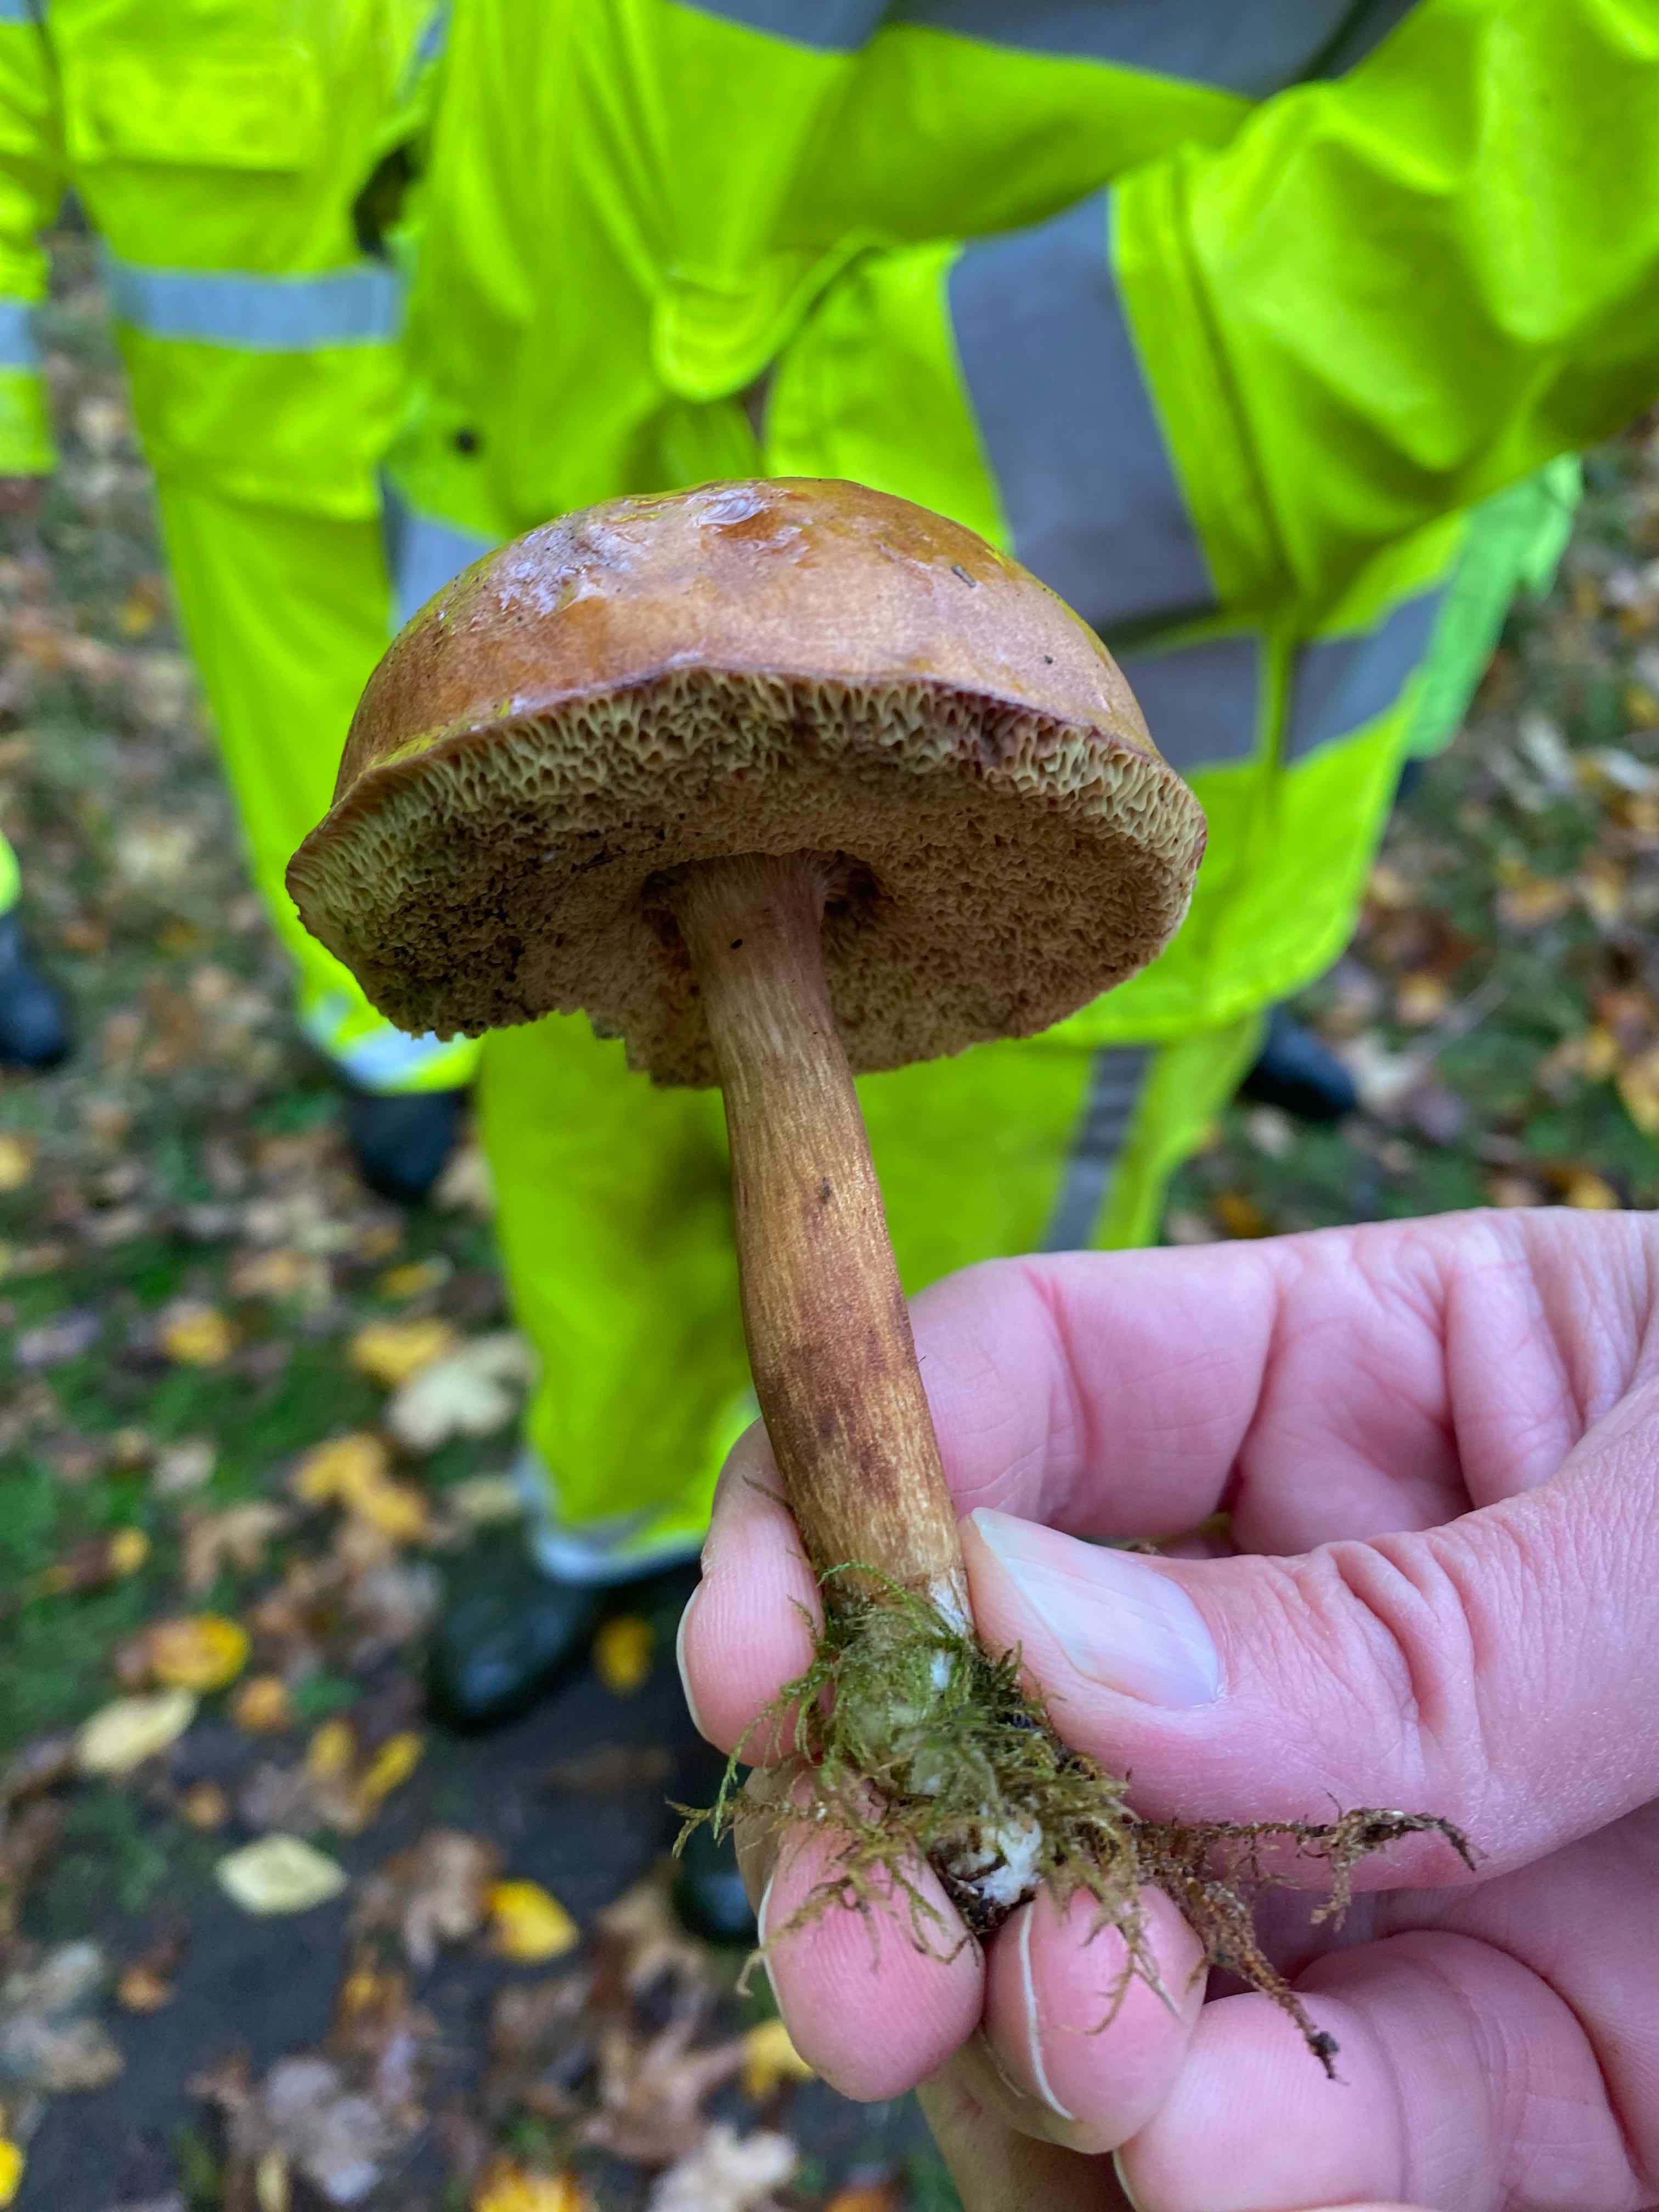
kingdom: Fungi
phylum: Basidiomycota
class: Agaricomycetes
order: Boletales
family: Boletaceae
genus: Imleria
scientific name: Imleria badia
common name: brunstokket rørhat
